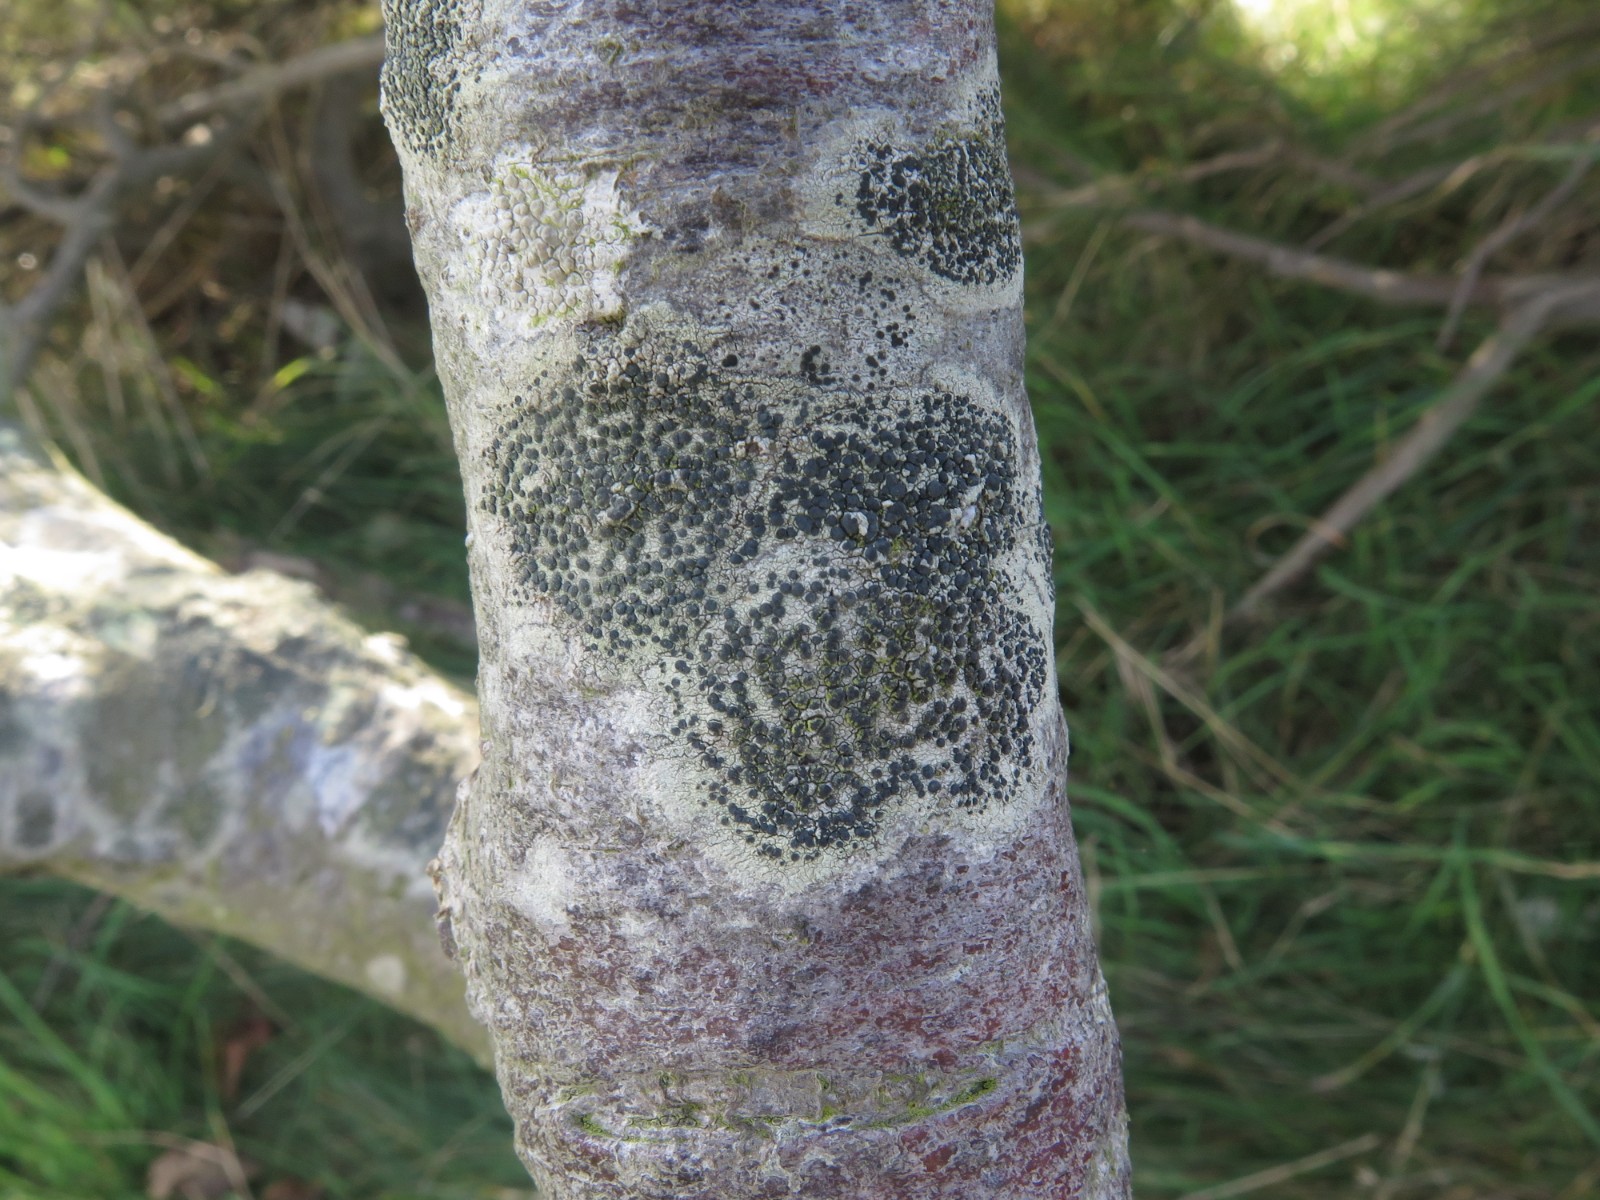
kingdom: Fungi
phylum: Ascomycota
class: Lecanoromycetes
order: Lecanorales
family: Lecanoraceae
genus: Lecidella
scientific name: Lecidella elaeochroma
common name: grågrøn skivelav
